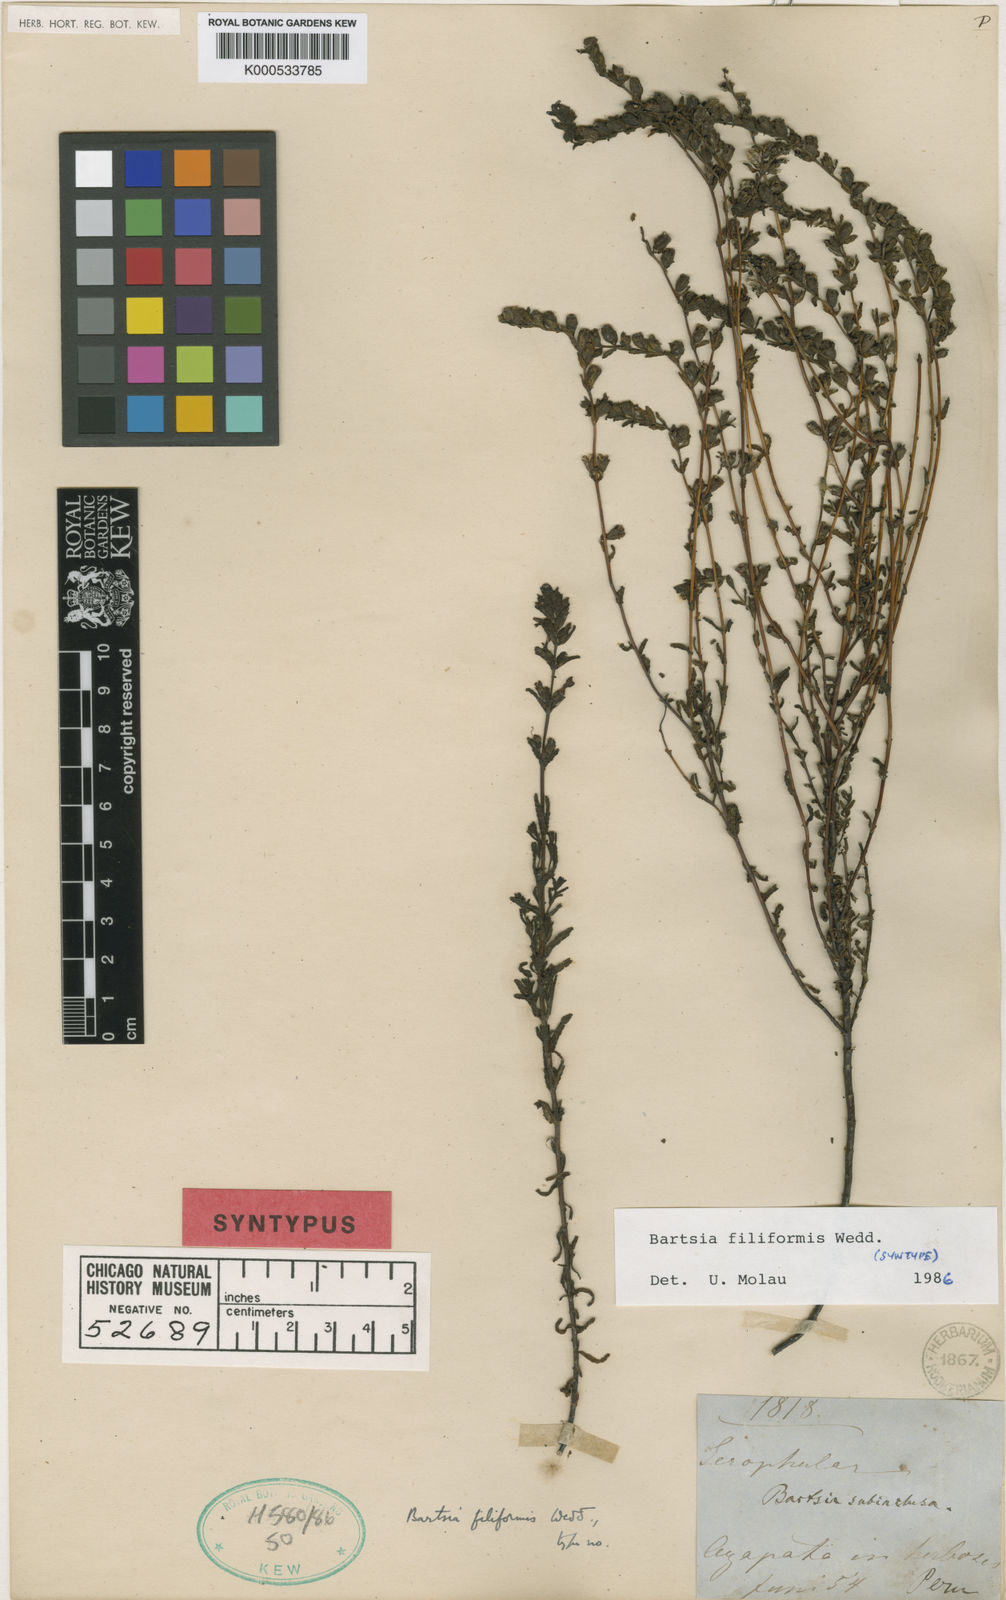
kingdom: Plantae
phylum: Tracheophyta
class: Magnoliopsida
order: Lamiales
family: Orobanchaceae
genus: Neobartsia
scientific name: Neobartsia filiformis
